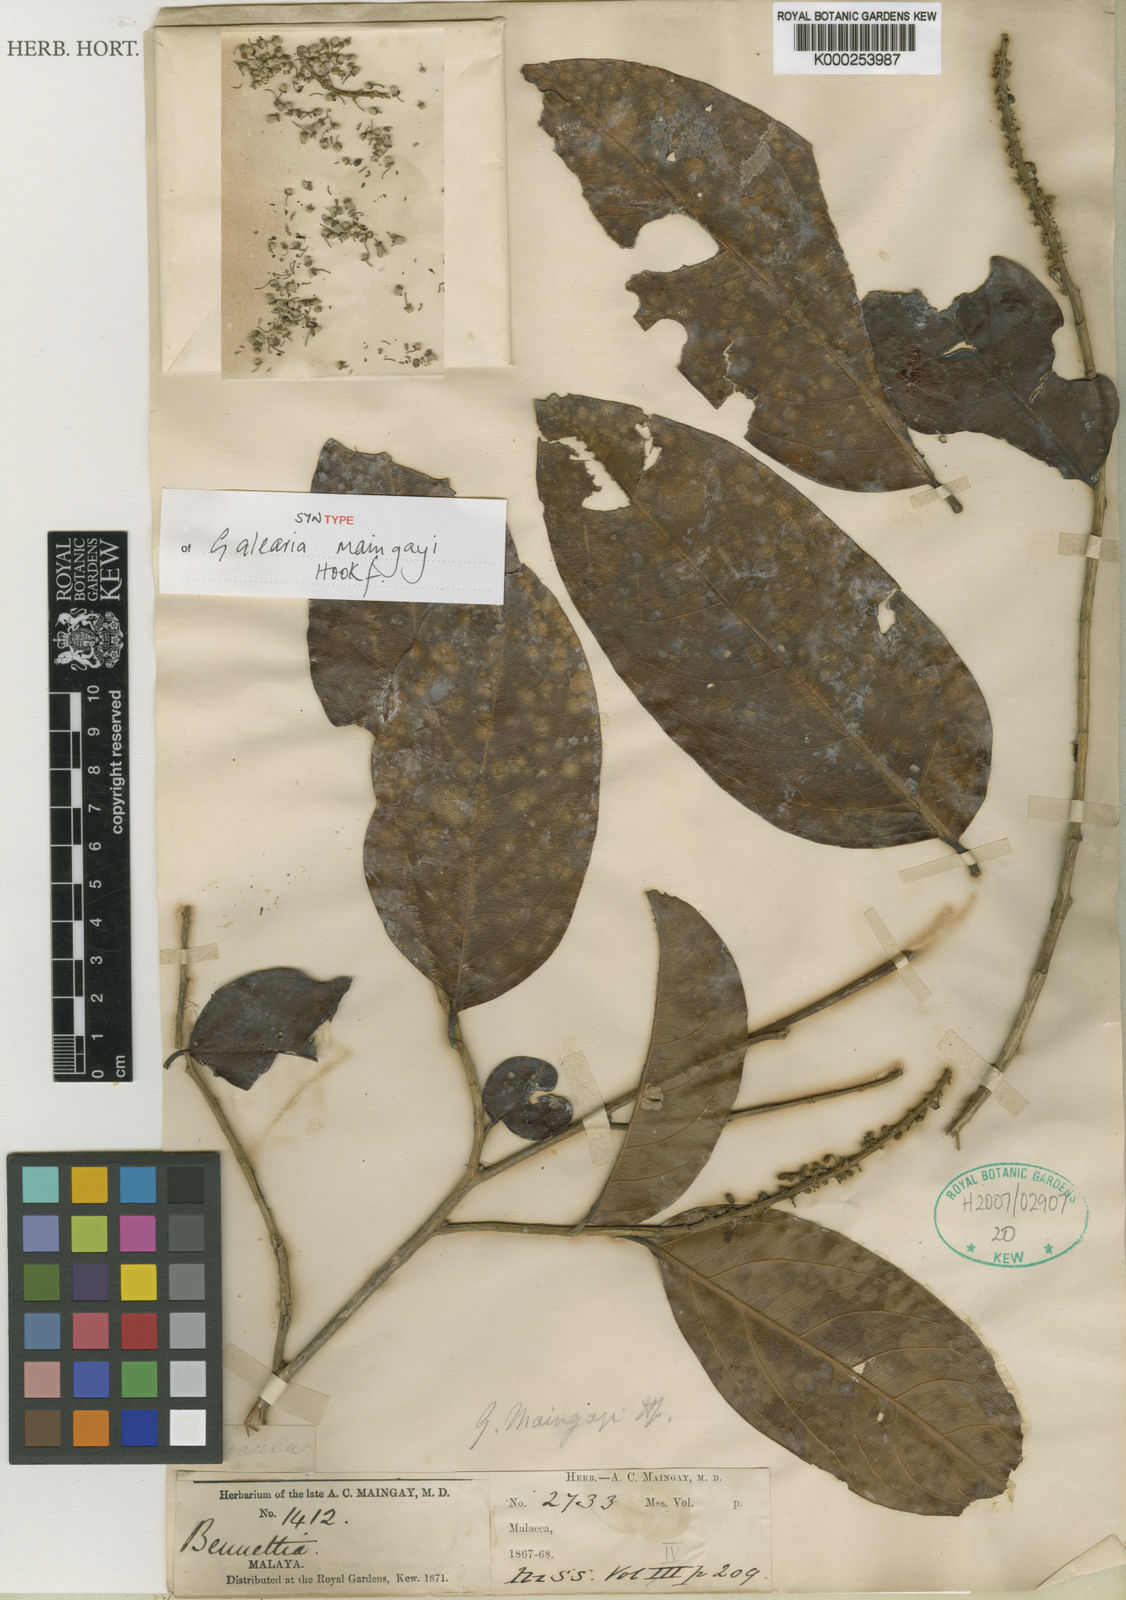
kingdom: Plantae
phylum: Tracheophyta
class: Magnoliopsida
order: Malpighiales
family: Pandaceae
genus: Galearia
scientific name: Galearia maingayi
